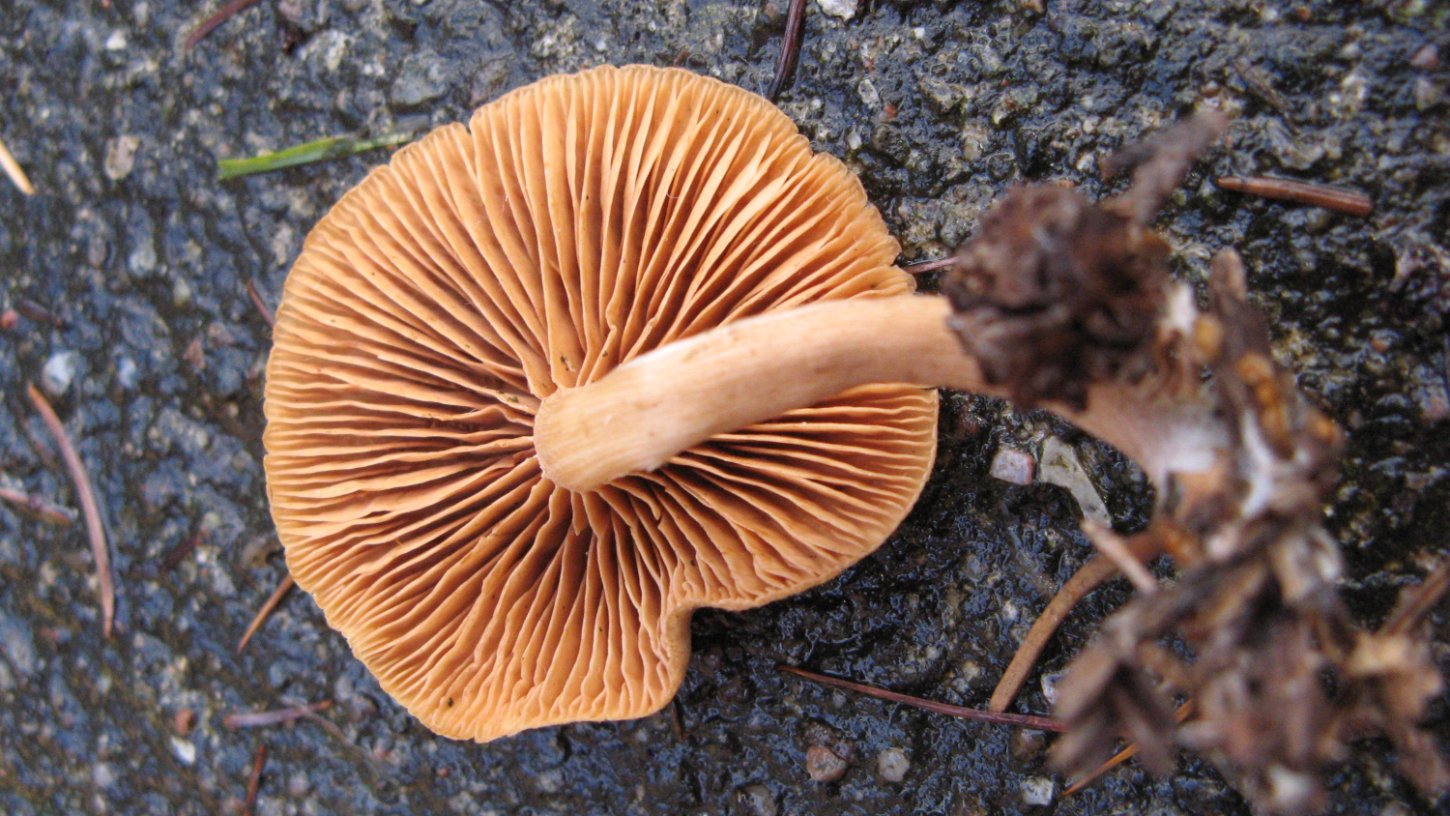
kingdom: Fungi
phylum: Basidiomycota
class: Agaricomycetes
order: Agaricales
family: Tubariaceae
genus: Tubaria
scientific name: Tubaria furfuracea
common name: kliddet fnughat
